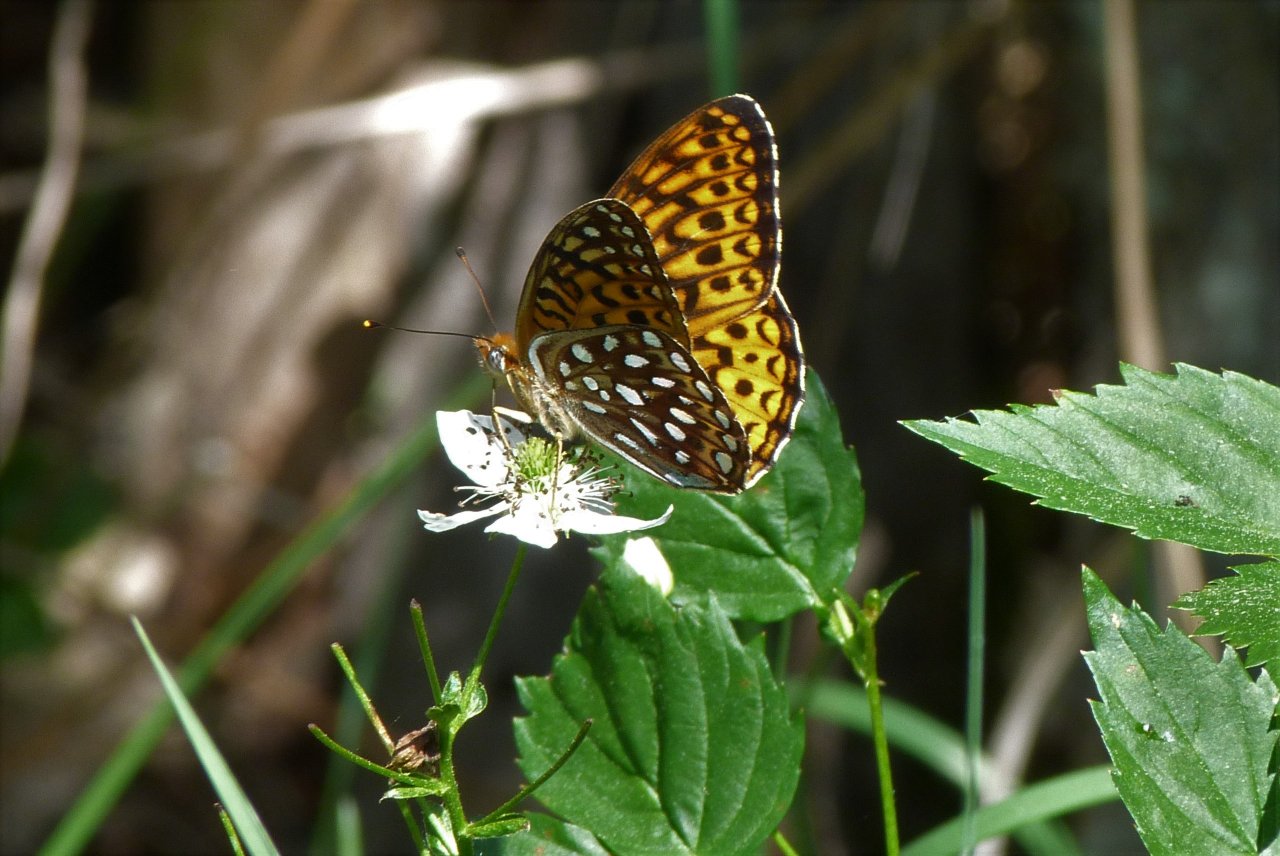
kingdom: Animalia
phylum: Arthropoda
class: Insecta
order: Lepidoptera
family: Nymphalidae
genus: Speyeria
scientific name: Speyeria atlantis
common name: Atlantis Fritillary
